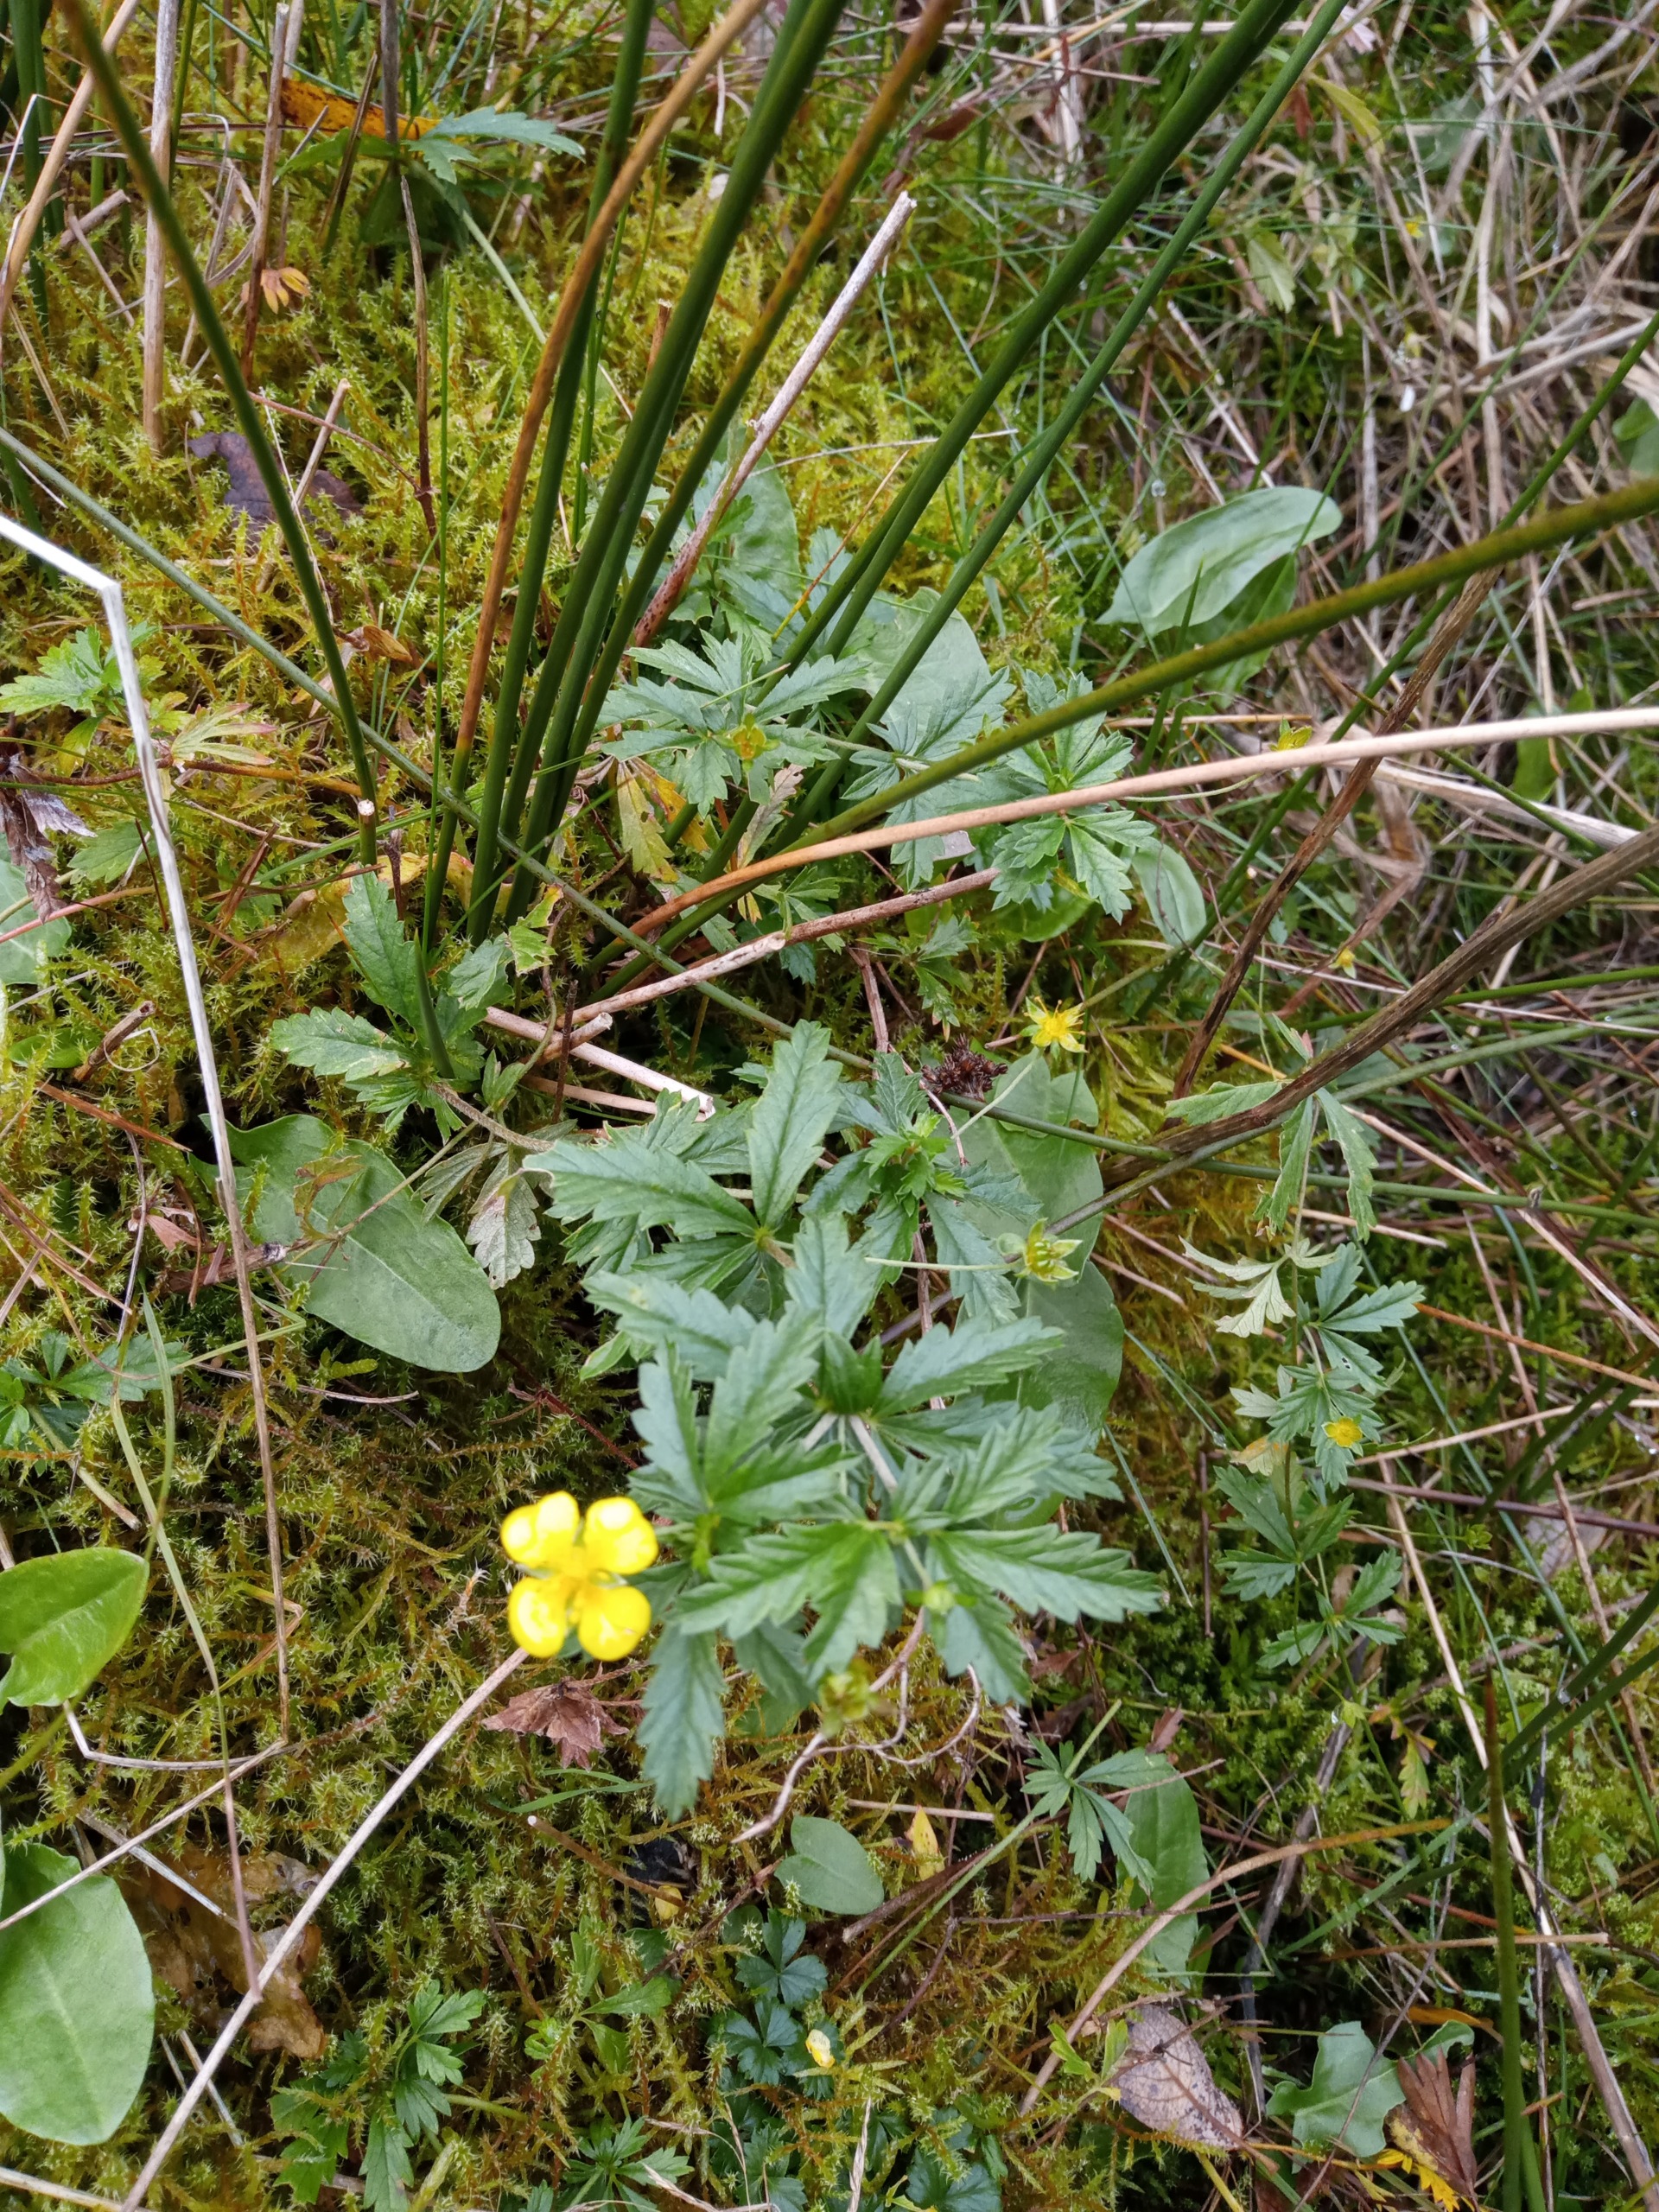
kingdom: Plantae
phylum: Tracheophyta
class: Magnoliopsida
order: Rosales
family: Rosaceae
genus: Potentilla
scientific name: Potentilla erecta
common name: Tormentil
